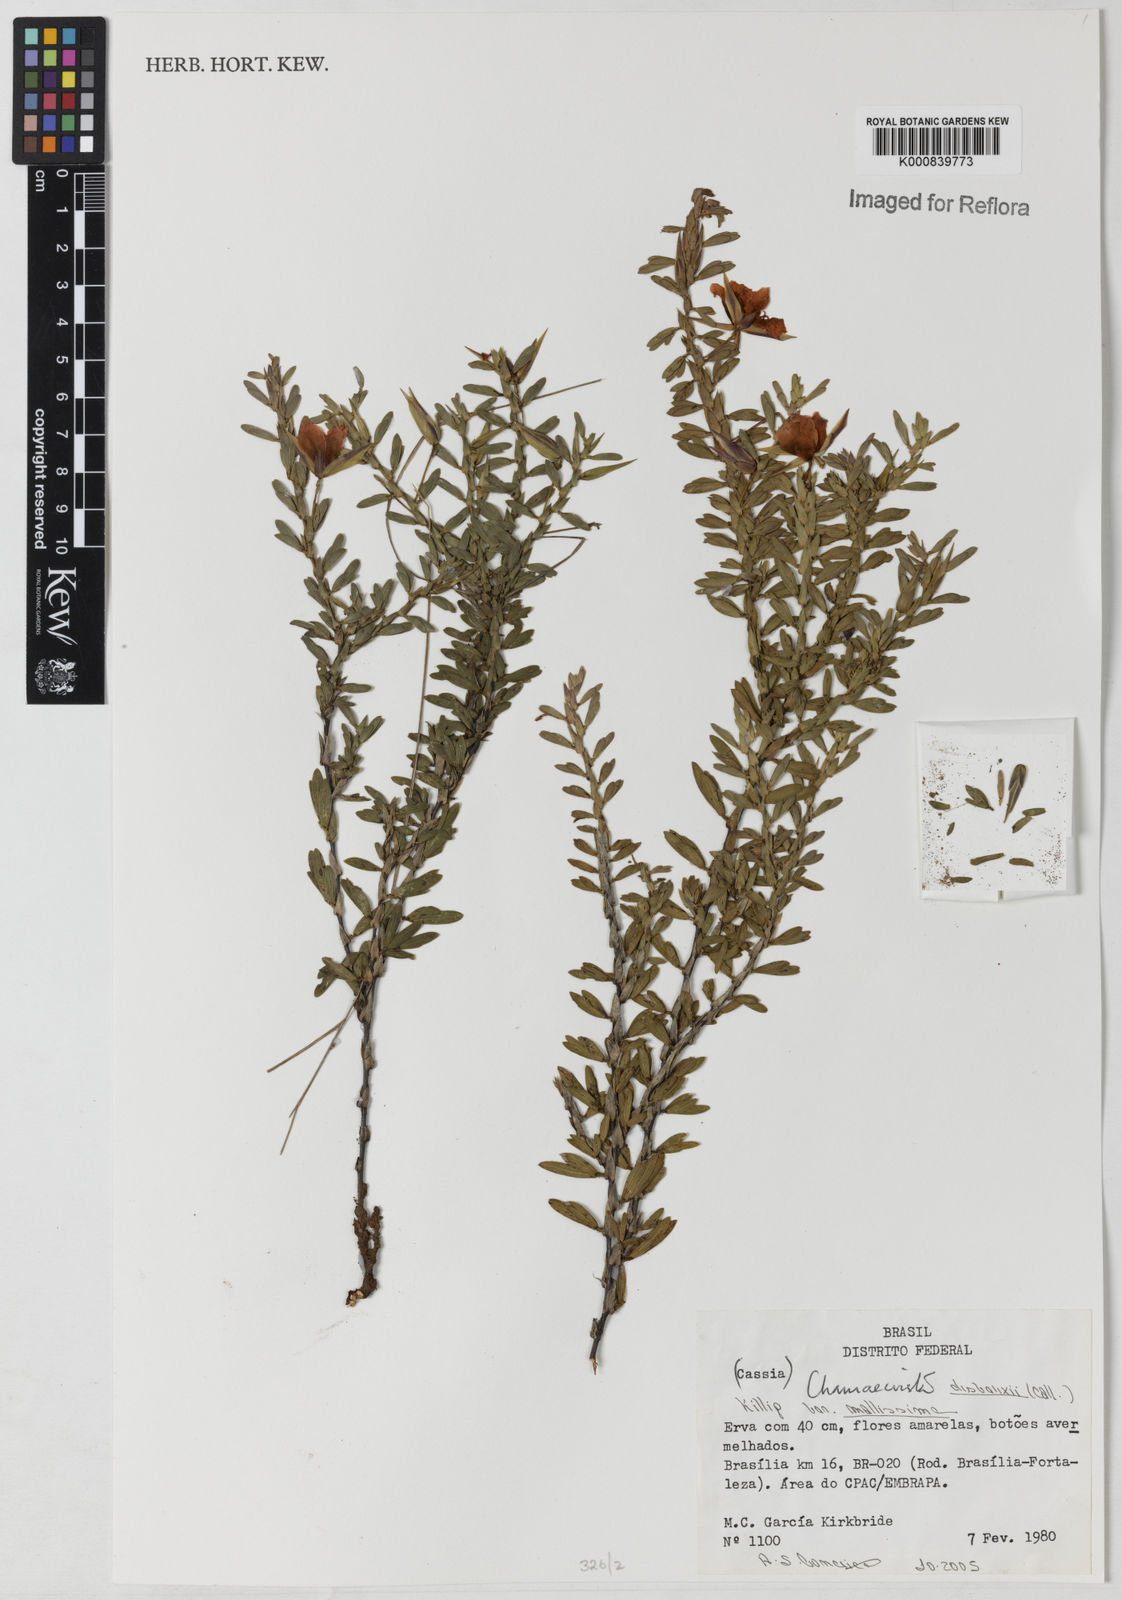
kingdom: Plantae
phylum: Tracheophyta
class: Magnoliopsida
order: Fabales
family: Fabaceae
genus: Chamaecrista
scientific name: Chamaecrista desvauxii
